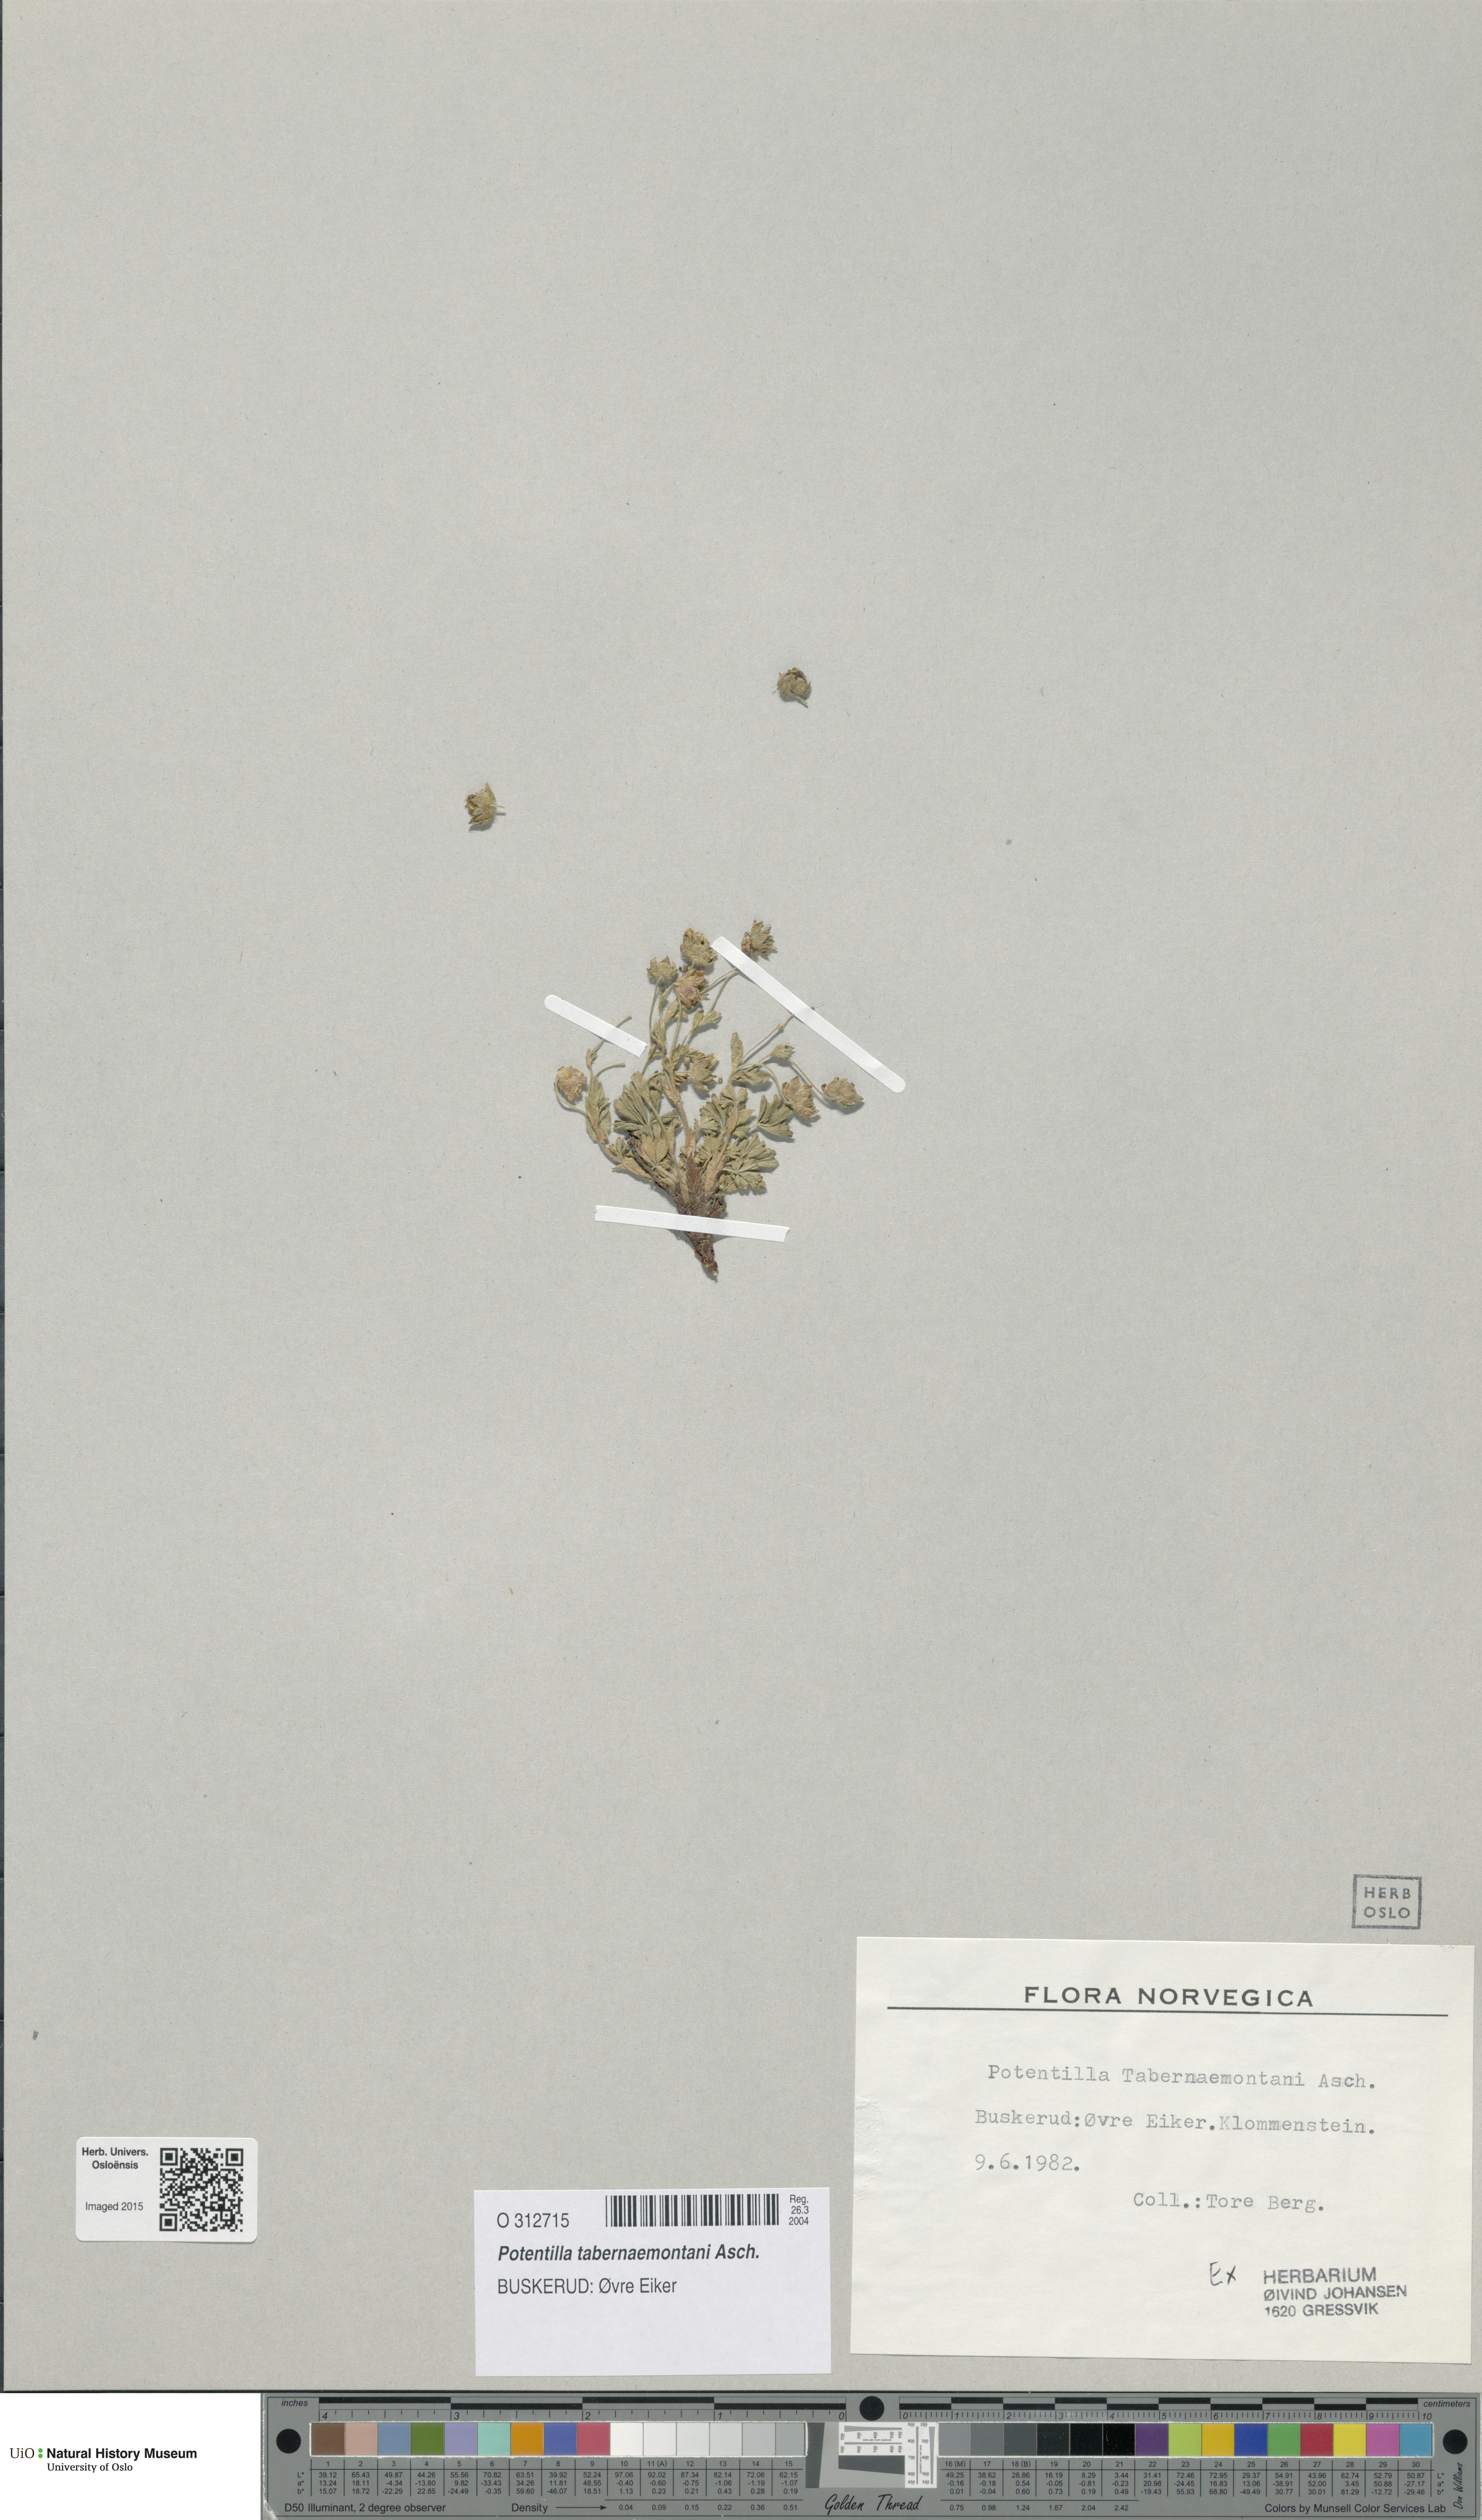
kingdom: Plantae
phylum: Tracheophyta
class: Magnoliopsida
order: Rosales
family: Rosaceae
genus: Potentilla
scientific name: Potentilla verna
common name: Spring cinquefoil
